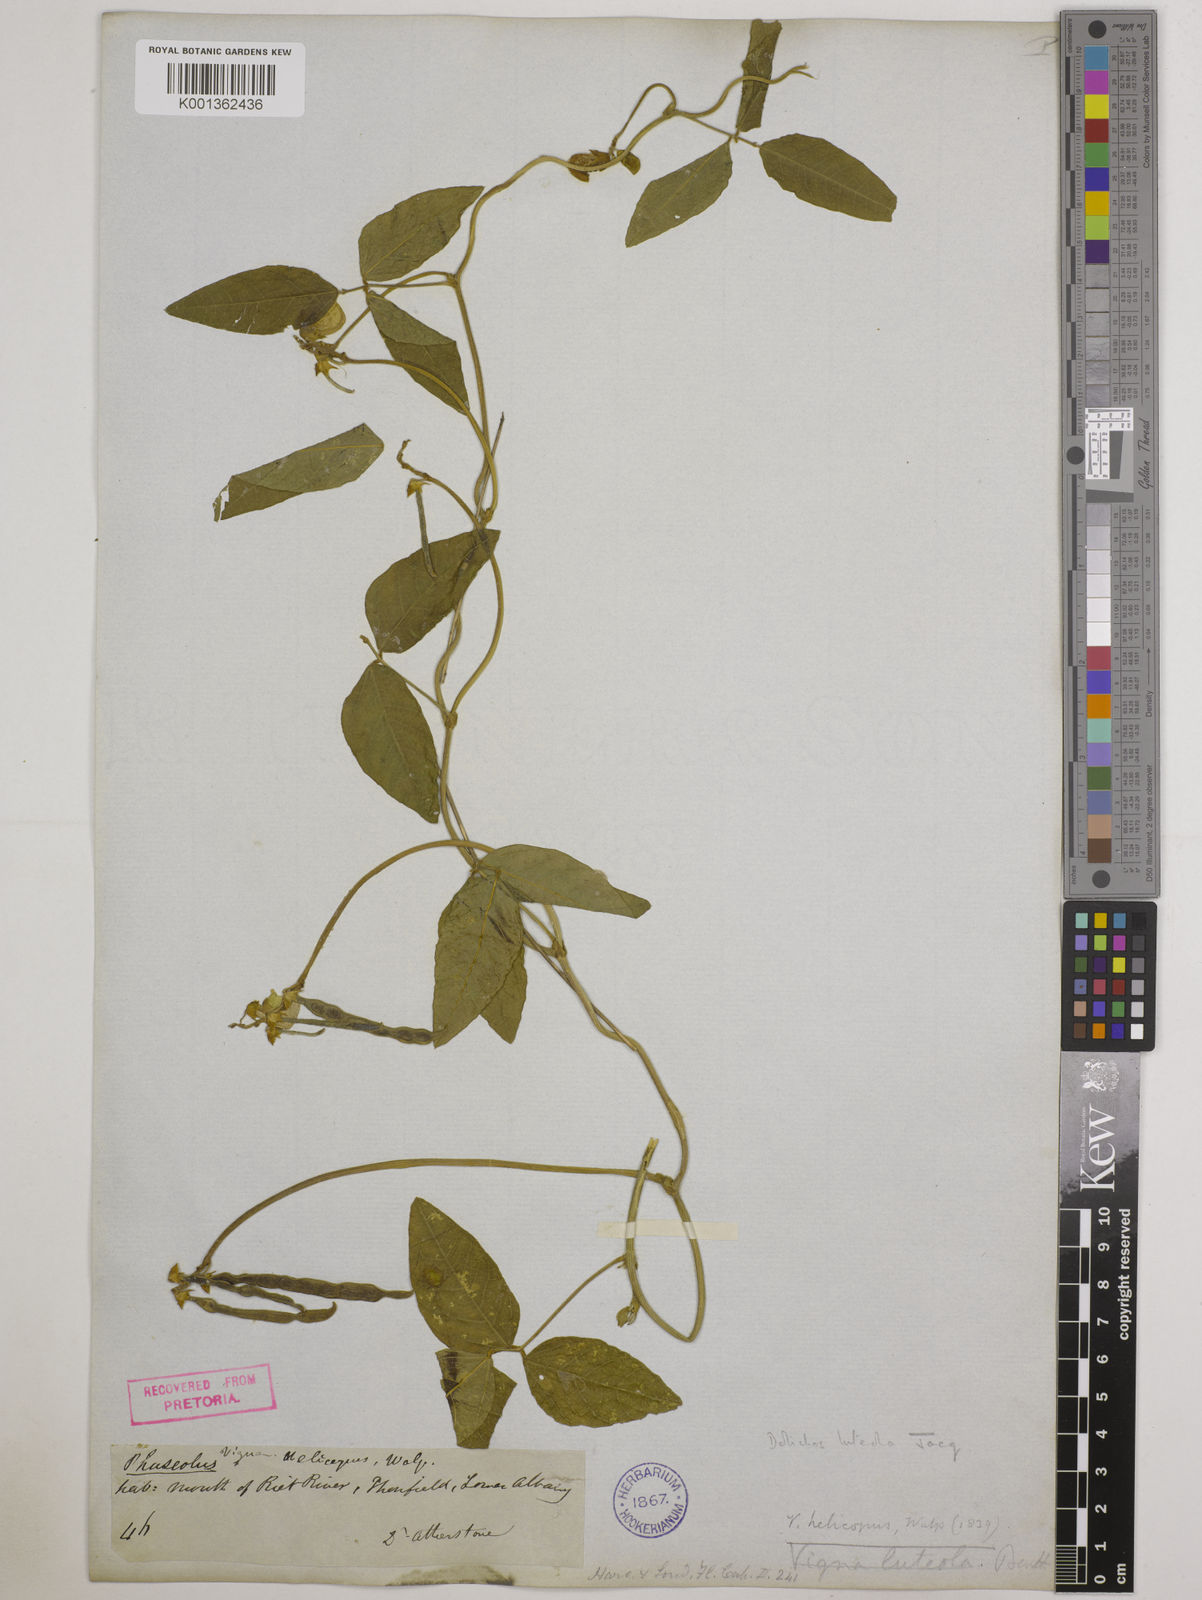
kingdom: Plantae
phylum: Tracheophyta
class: Magnoliopsida
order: Fabales
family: Fabaceae
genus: Vigna
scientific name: Vigna luteola
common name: Hairypod cowpea
